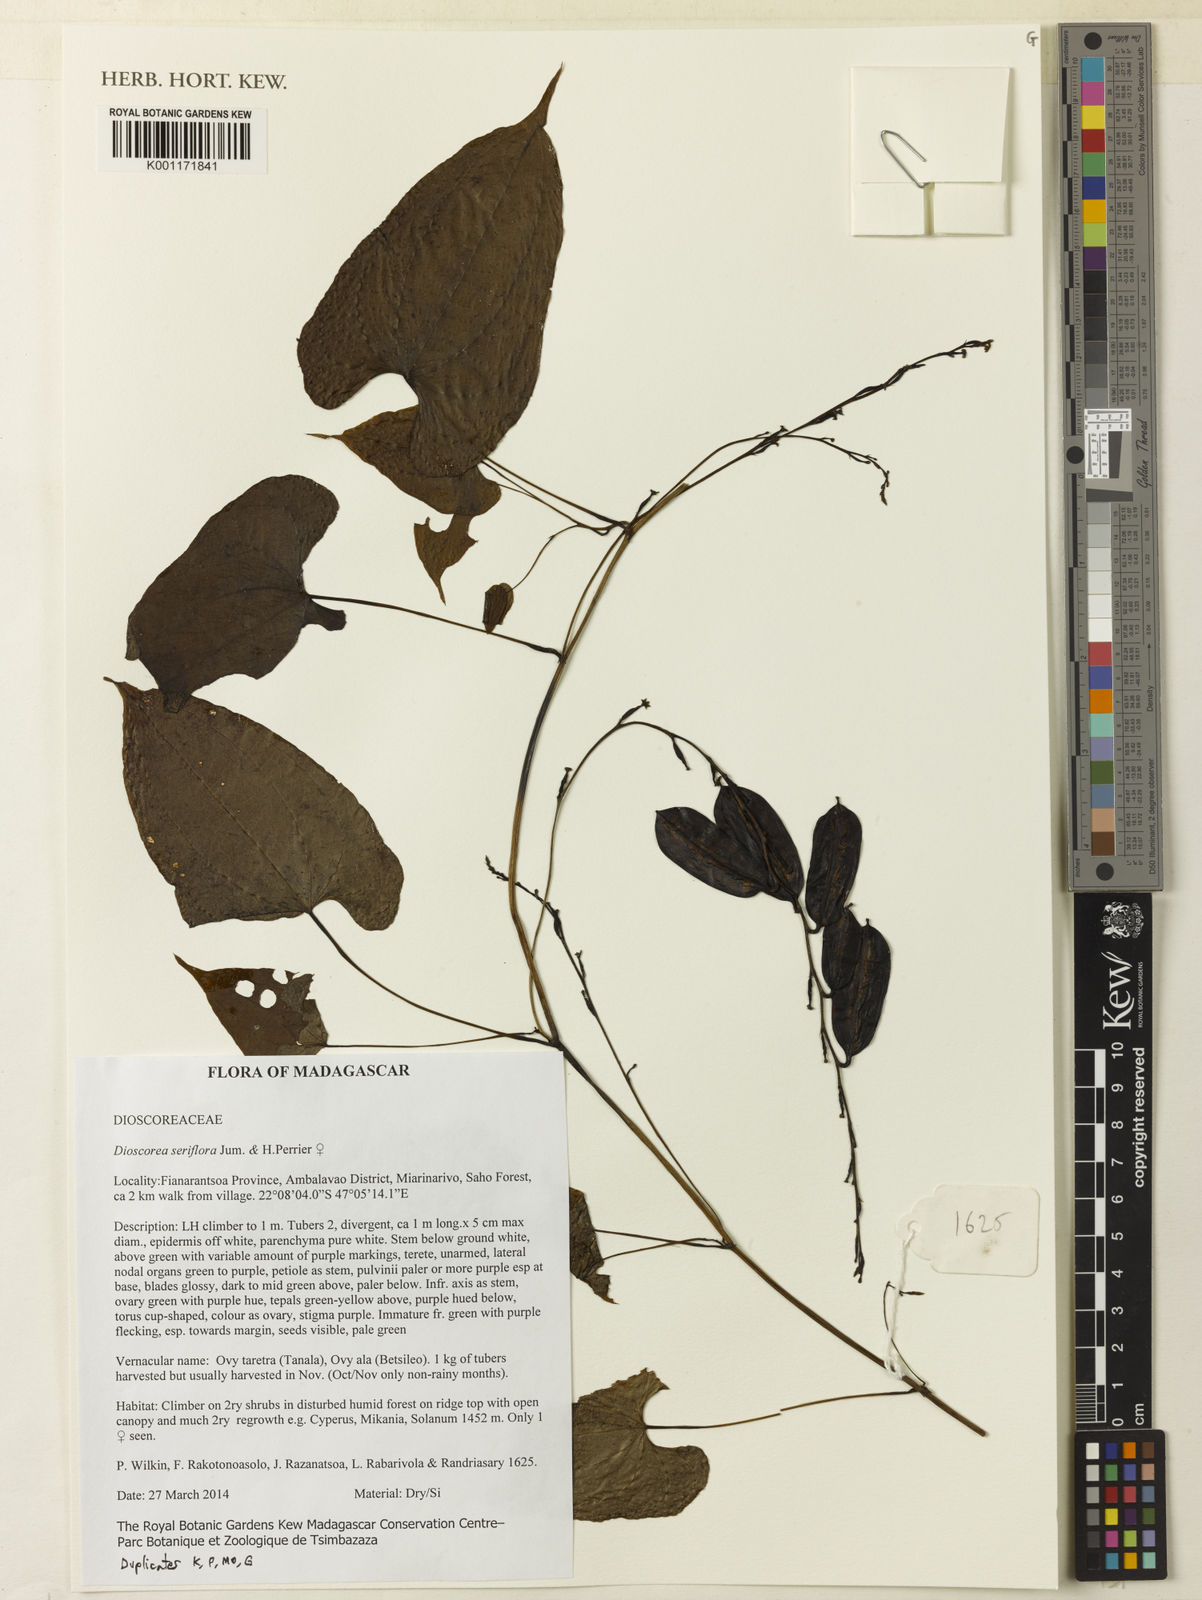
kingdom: Plantae
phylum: Tracheophyta
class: Liliopsida
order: Dioscoreales
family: Dioscoreaceae
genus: Dioscorea
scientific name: Dioscorea seriflora
